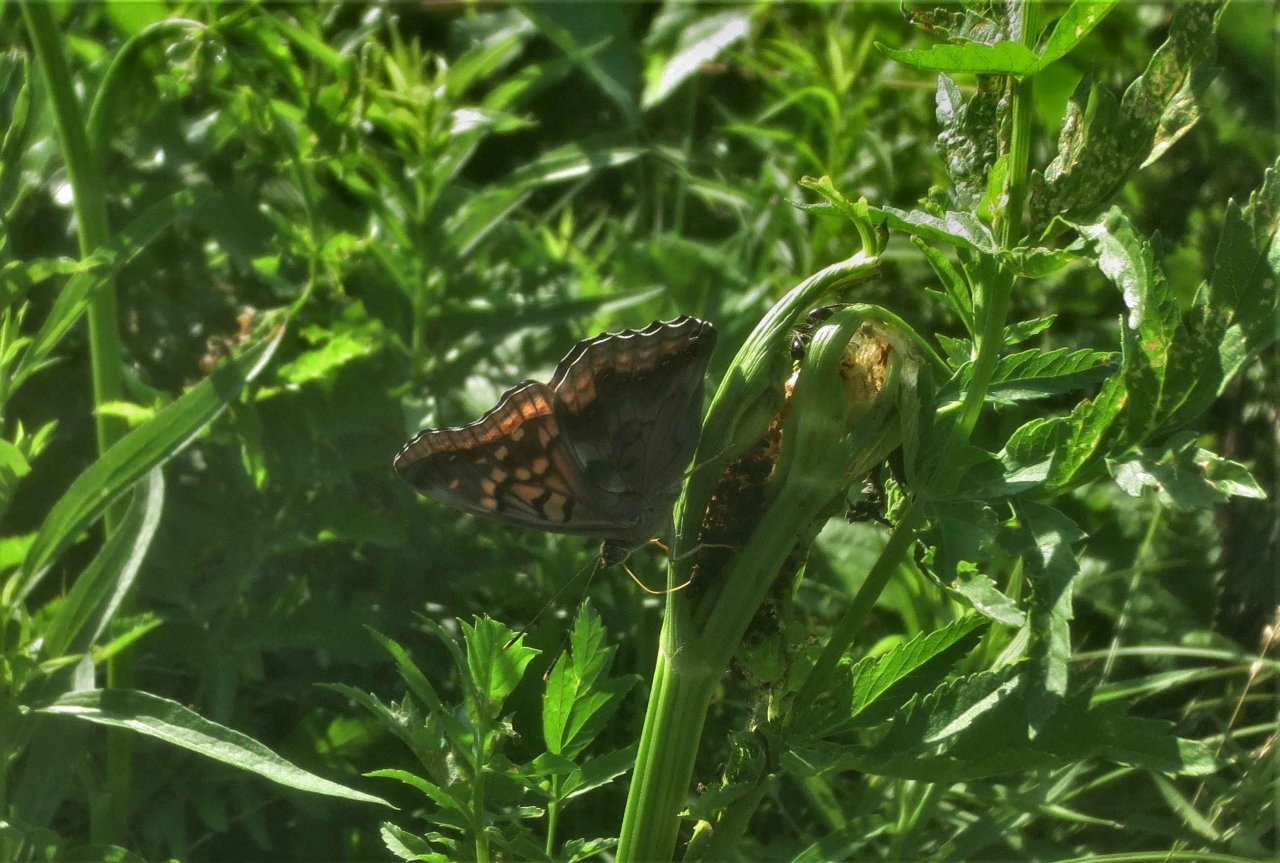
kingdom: Animalia
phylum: Arthropoda
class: Insecta
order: Lepidoptera
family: Nymphalidae
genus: Asterocampa
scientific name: Asterocampa clyton
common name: Tawny Emperor
